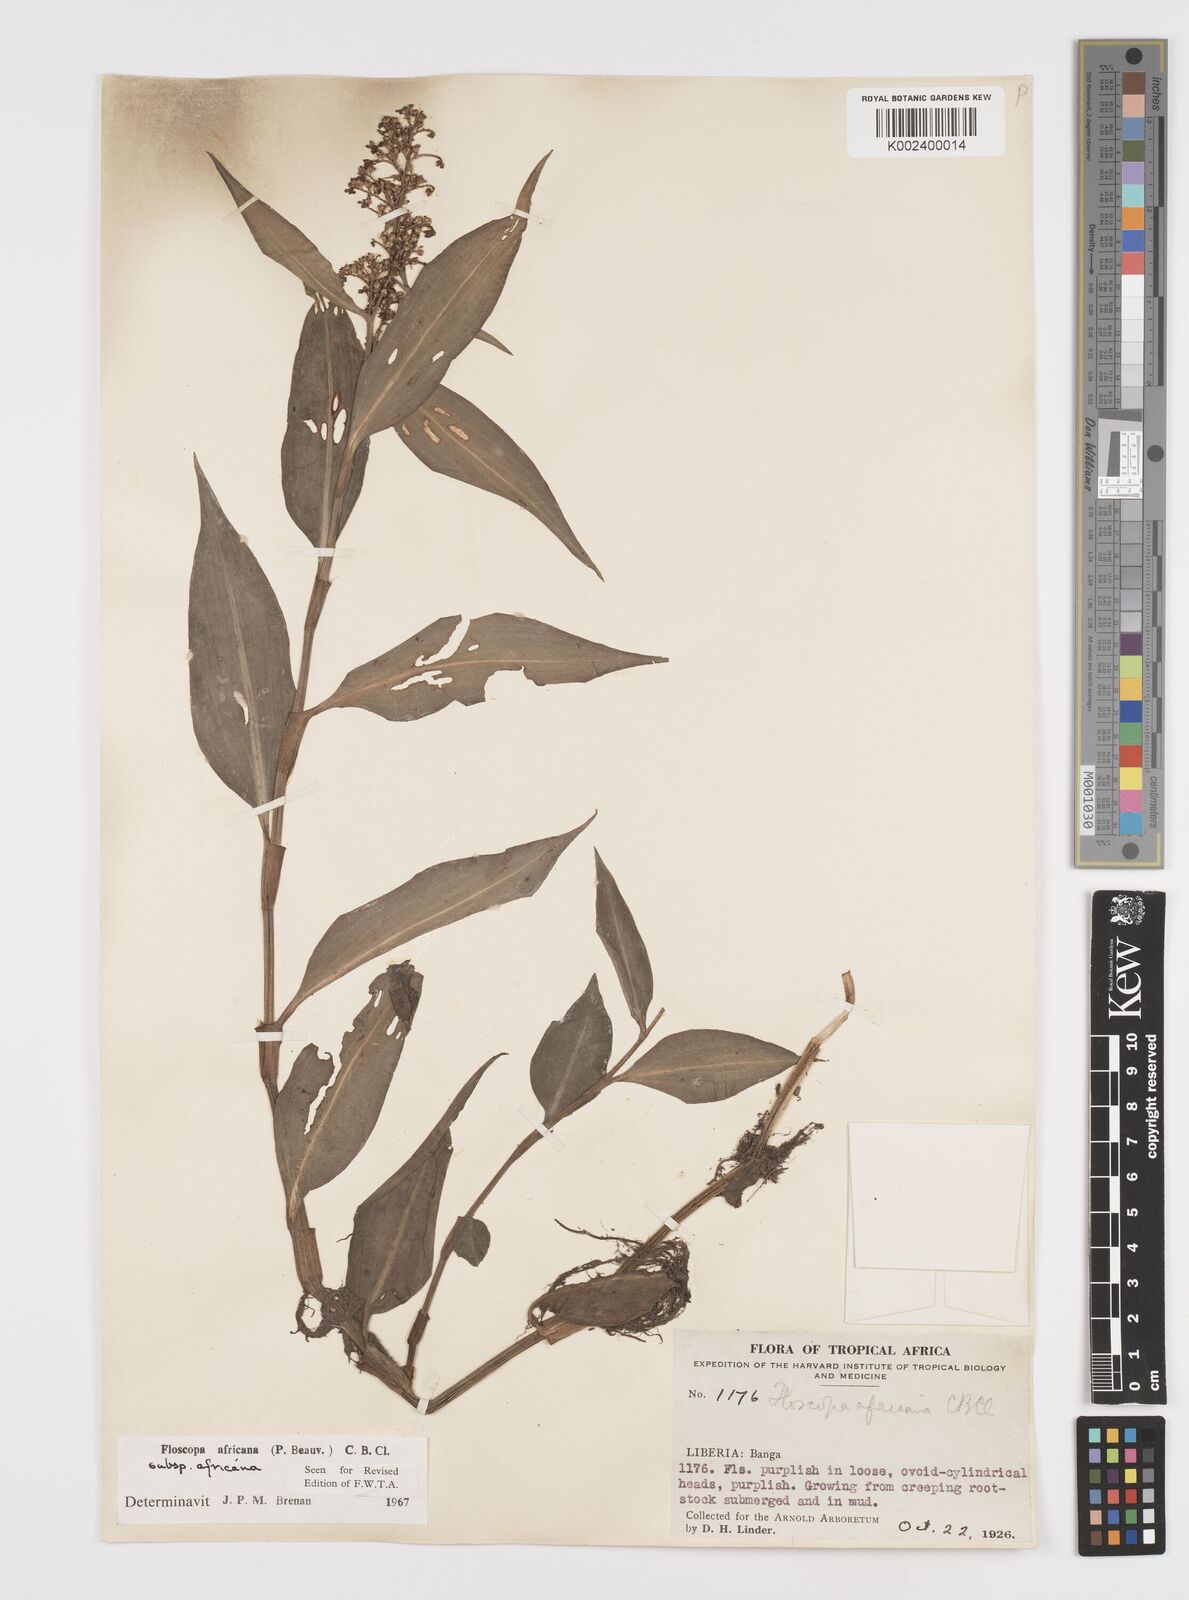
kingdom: Plantae
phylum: Tracheophyta
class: Liliopsida
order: Commelinales
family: Commelinaceae
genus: Floscopa
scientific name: Floscopa africana
